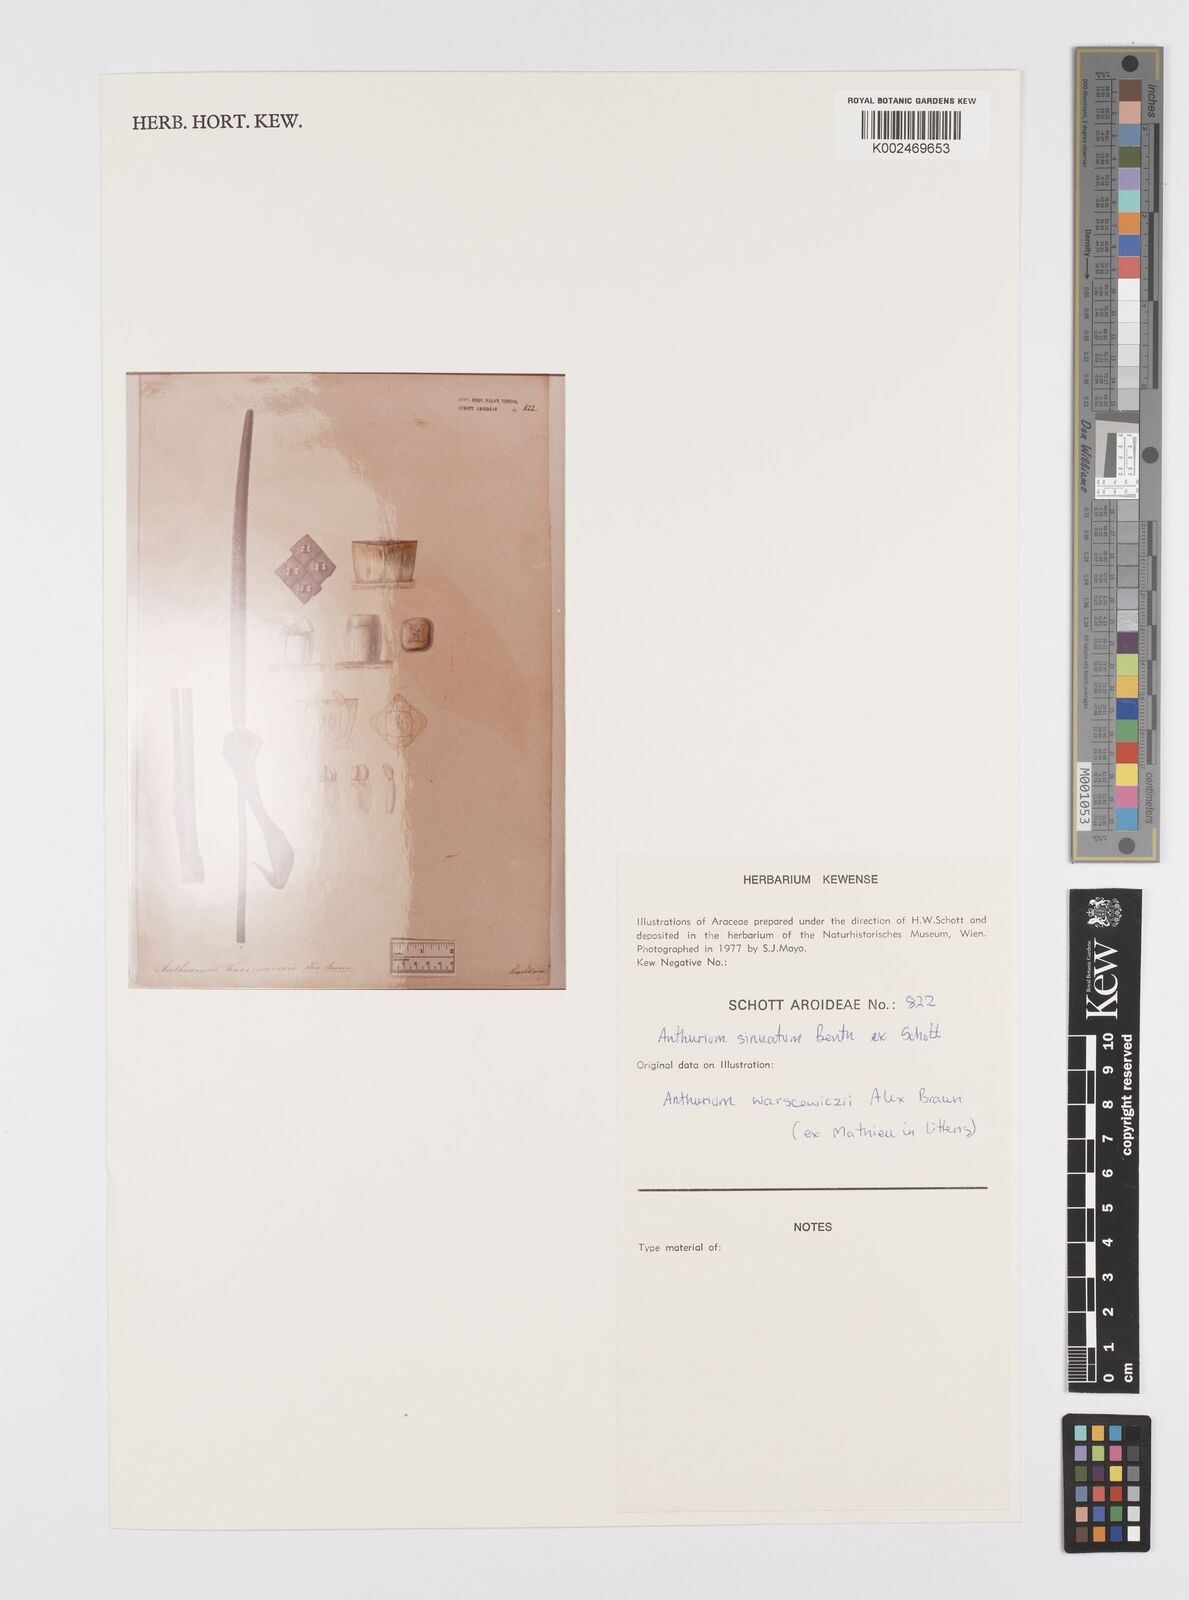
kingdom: Plantae
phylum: Tracheophyta
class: Liliopsida
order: Alismatales
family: Araceae
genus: Anthurium
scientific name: Anthurium sinuatum
